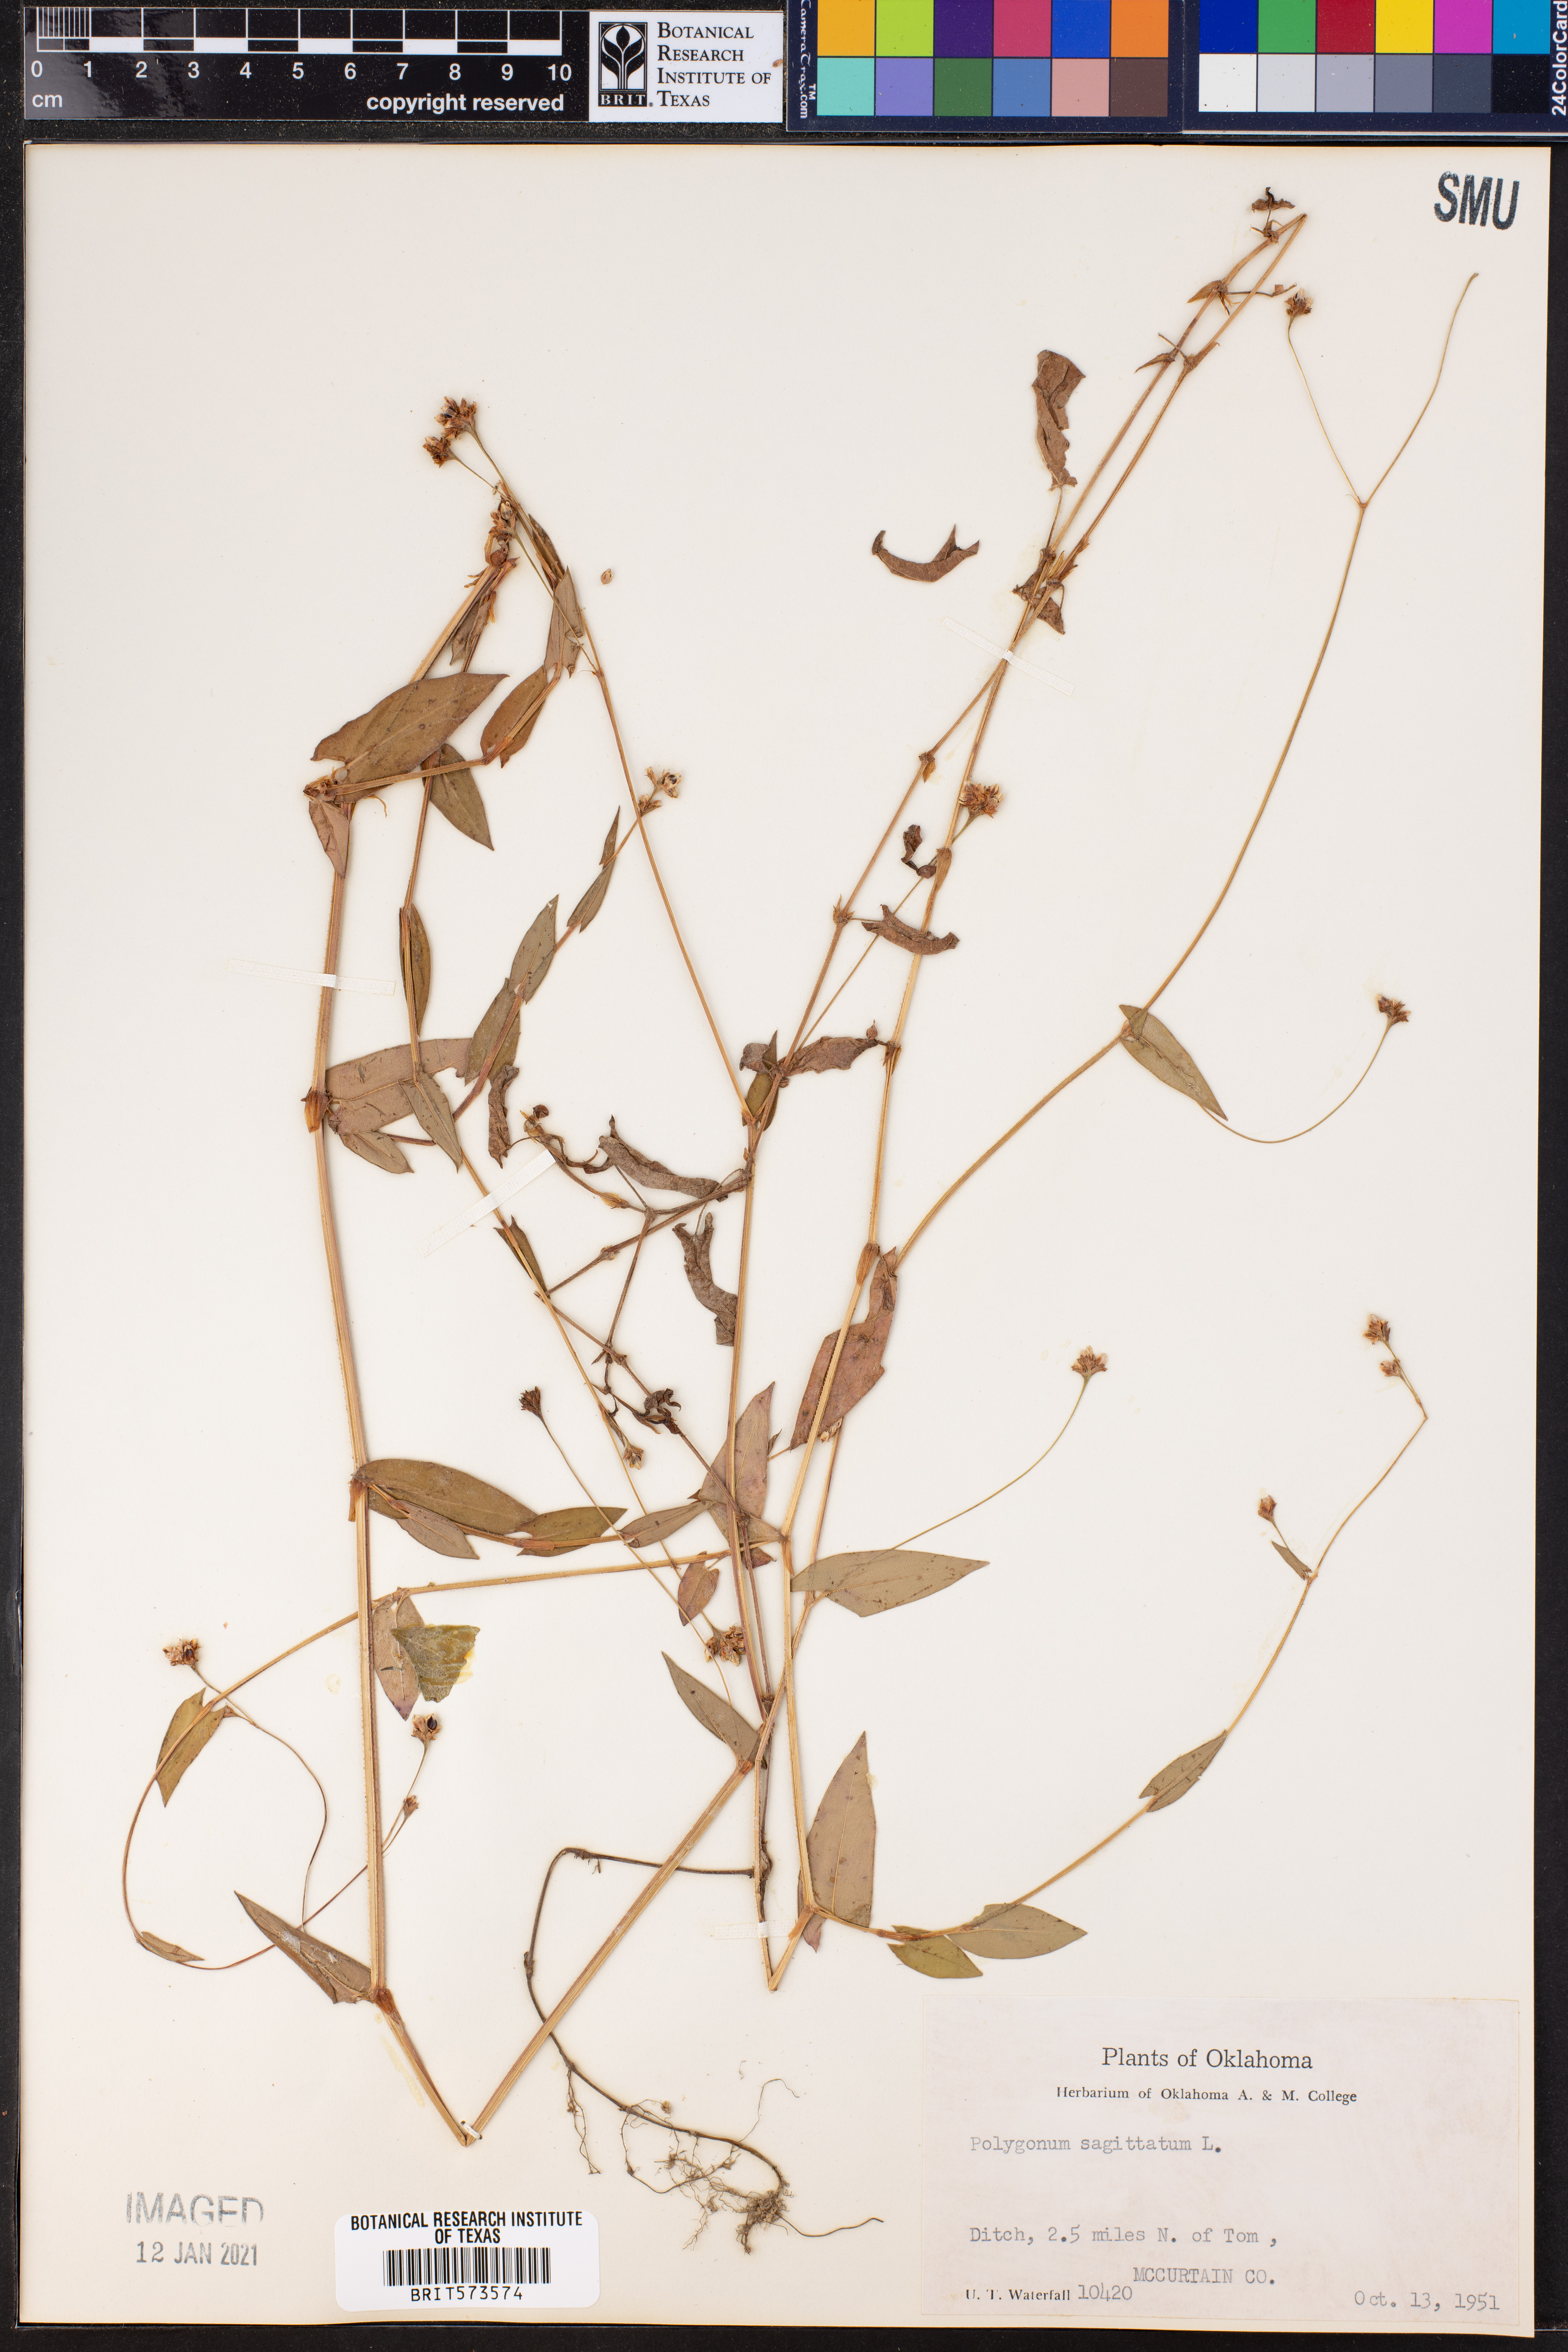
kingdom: Plantae
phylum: Tracheophyta
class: Magnoliopsida
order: Caryophyllales
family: Polygonaceae
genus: Persicaria
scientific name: Persicaria sagittata
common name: American tearthumb
